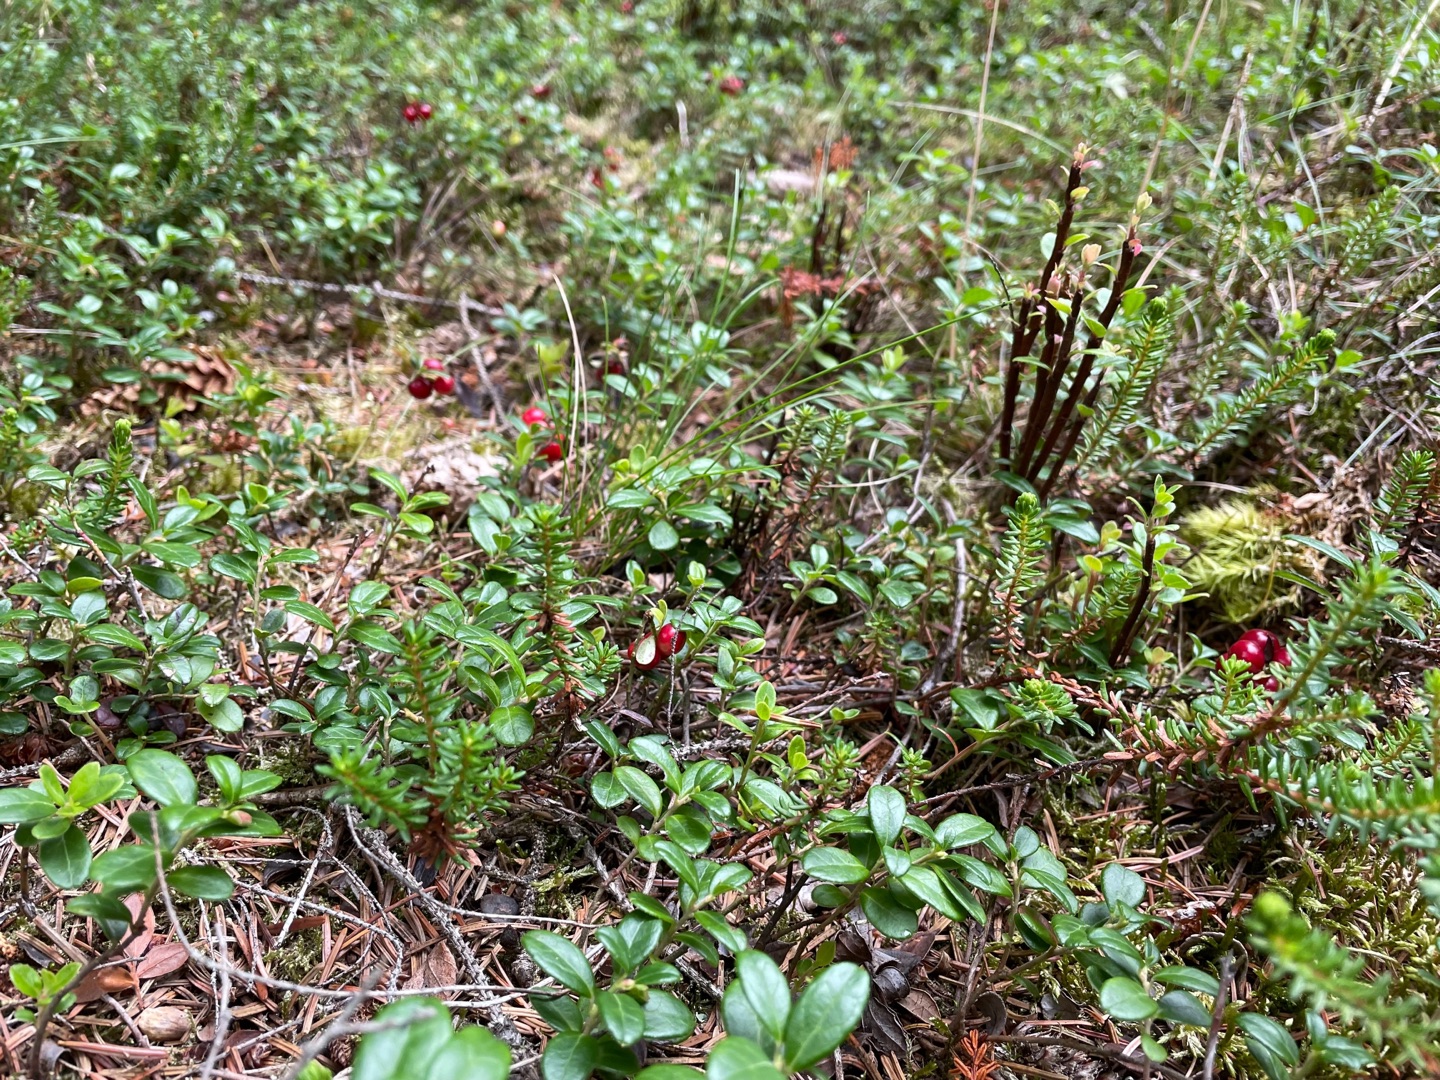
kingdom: Plantae
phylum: Tracheophyta
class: Magnoliopsida
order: Ericales
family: Ericaceae
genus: Vaccinium
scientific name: Vaccinium vitis-idaea
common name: Tyttebær
